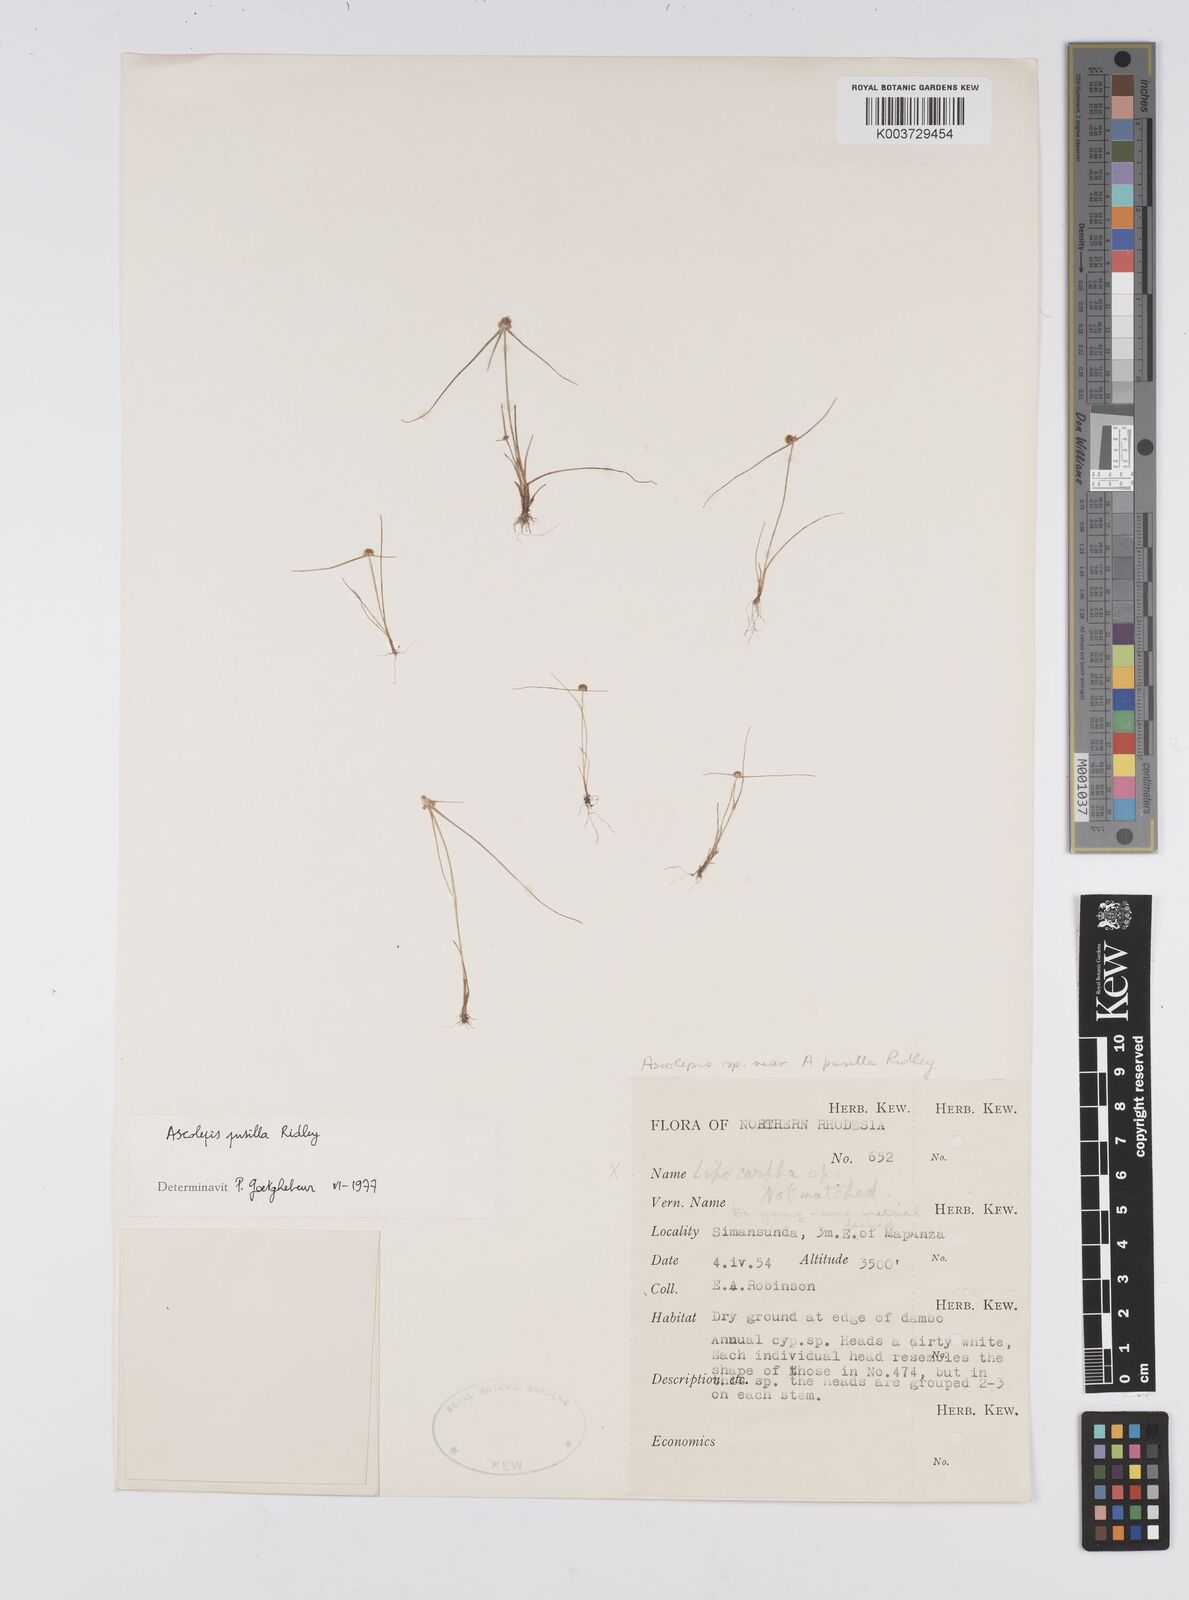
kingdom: Plantae
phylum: Tracheophyta
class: Liliopsida
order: Poales
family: Cyperaceae
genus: Cyperus
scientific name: Cyperus
